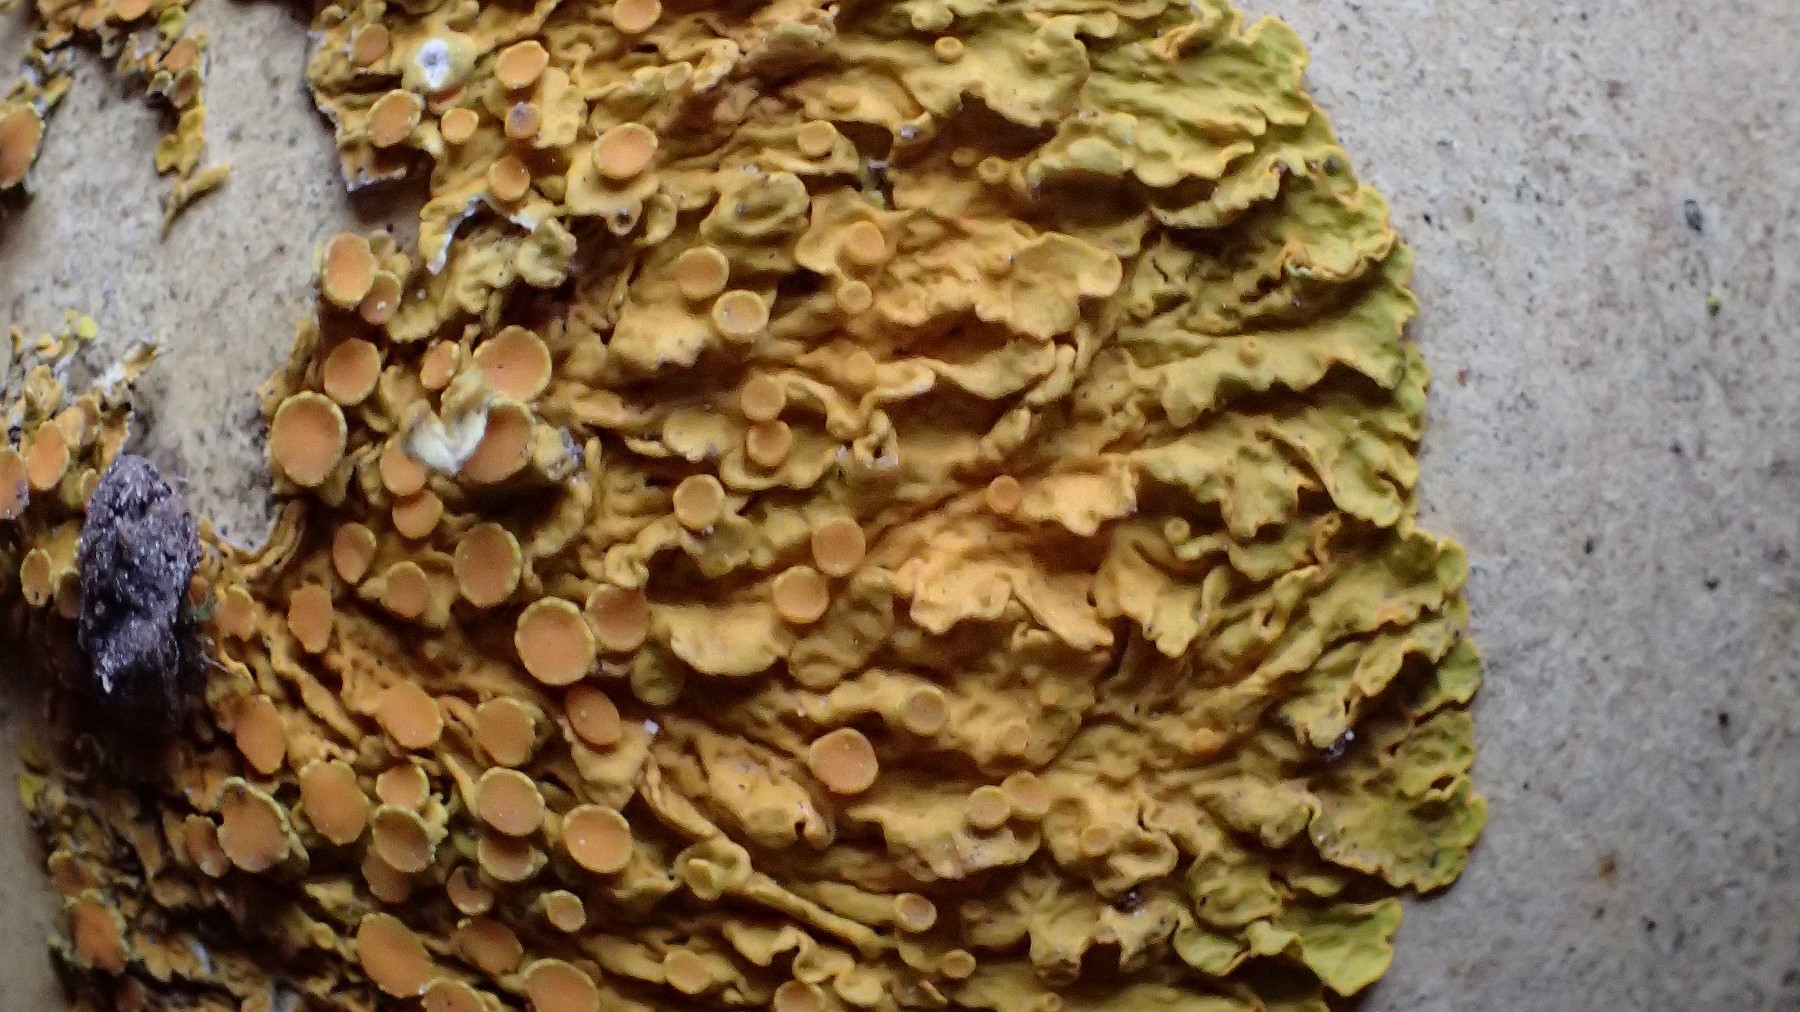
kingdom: Fungi
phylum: Ascomycota
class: Lecanoromycetes
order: Teloschistales
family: Teloschistaceae
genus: Xanthoria
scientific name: Xanthoria parietina
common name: almindelig væggelav
